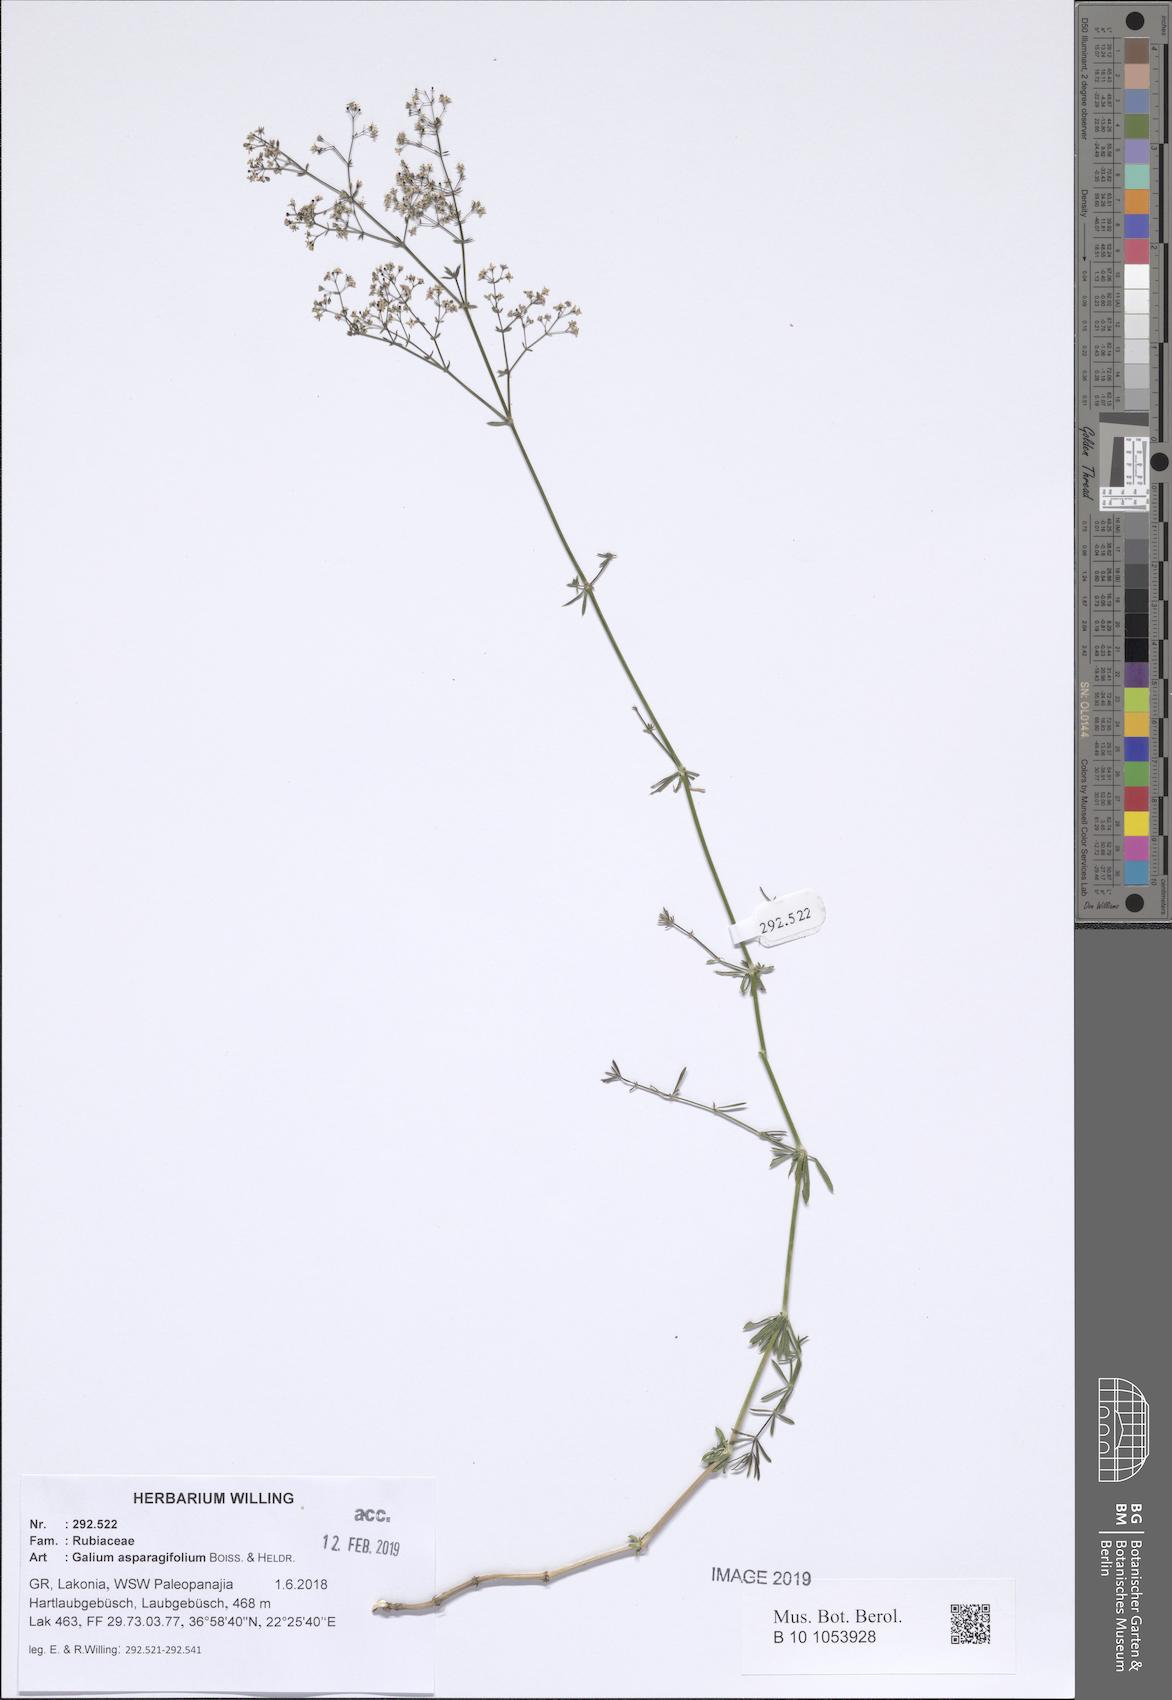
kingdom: Plantae
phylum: Tracheophyta
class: Magnoliopsida
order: Gentianales
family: Rubiaceae
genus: Galium
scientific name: Galium asparagifolium
